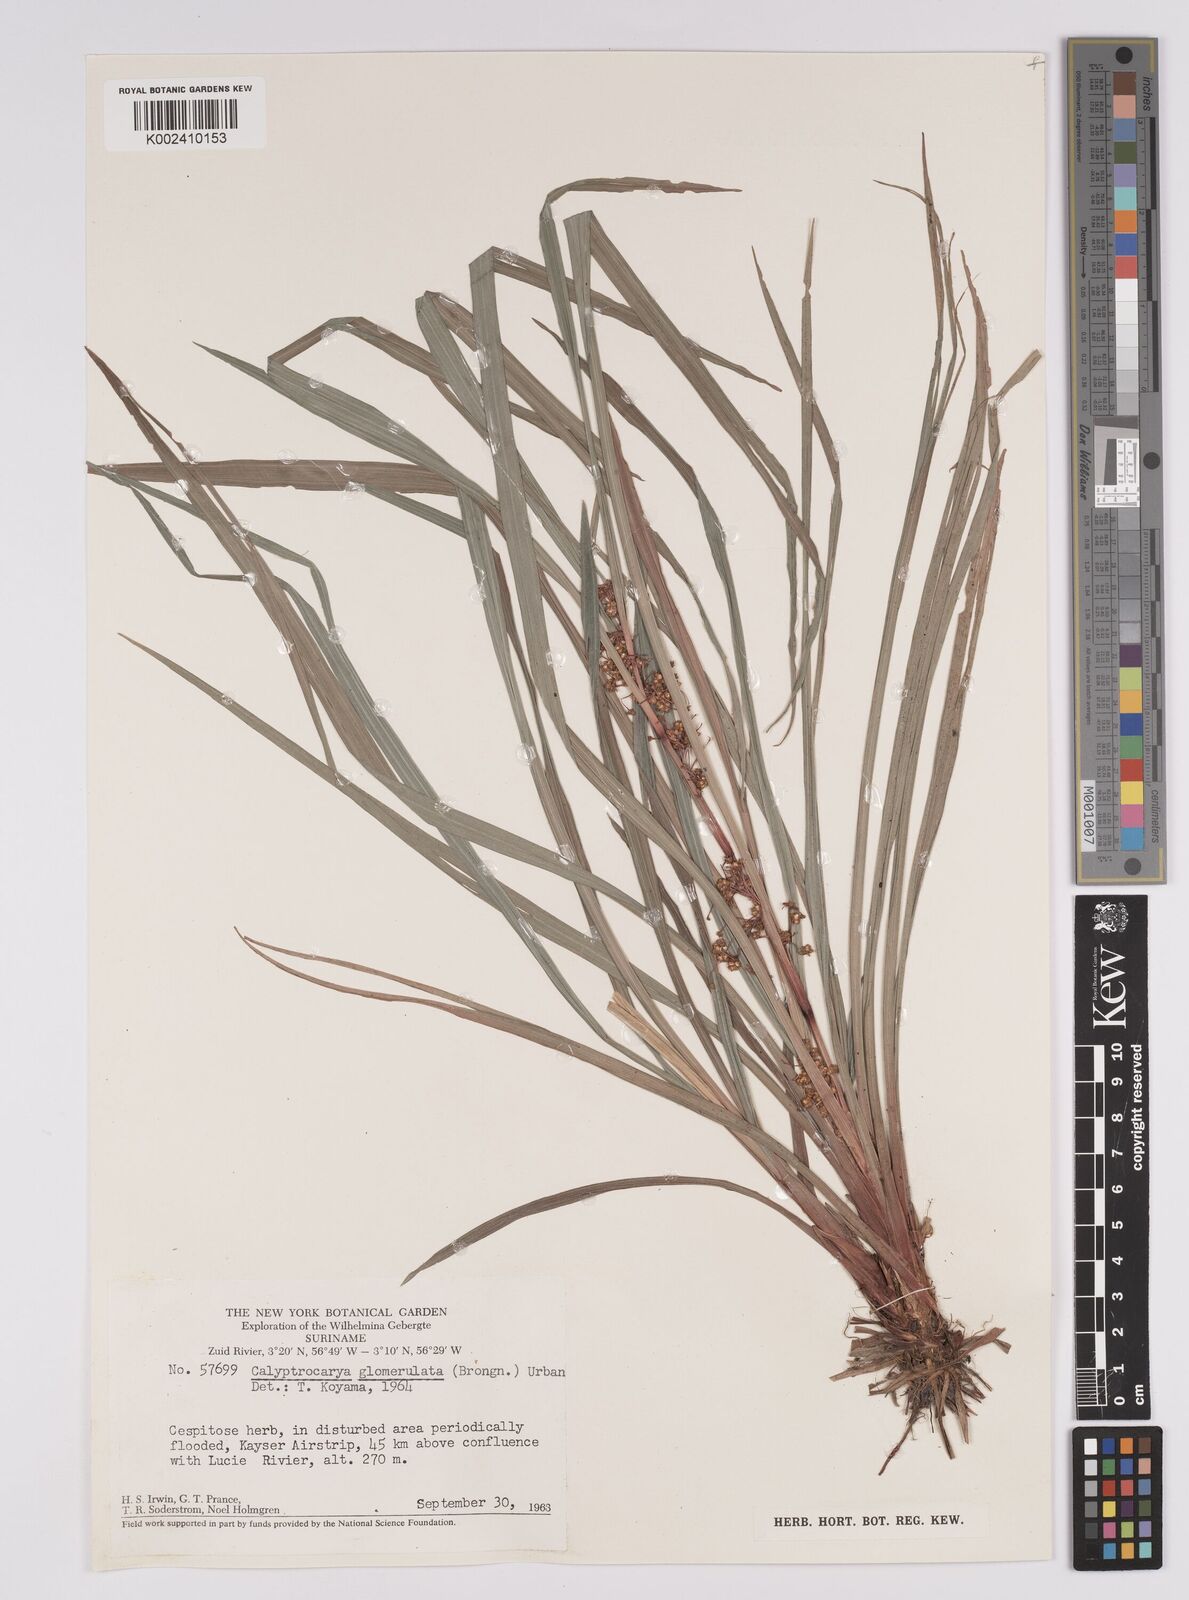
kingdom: Plantae
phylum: Tracheophyta
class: Liliopsida
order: Poales
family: Cyperaceae
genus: Calyptrocarya
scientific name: Calyptrocarya glomerulata
